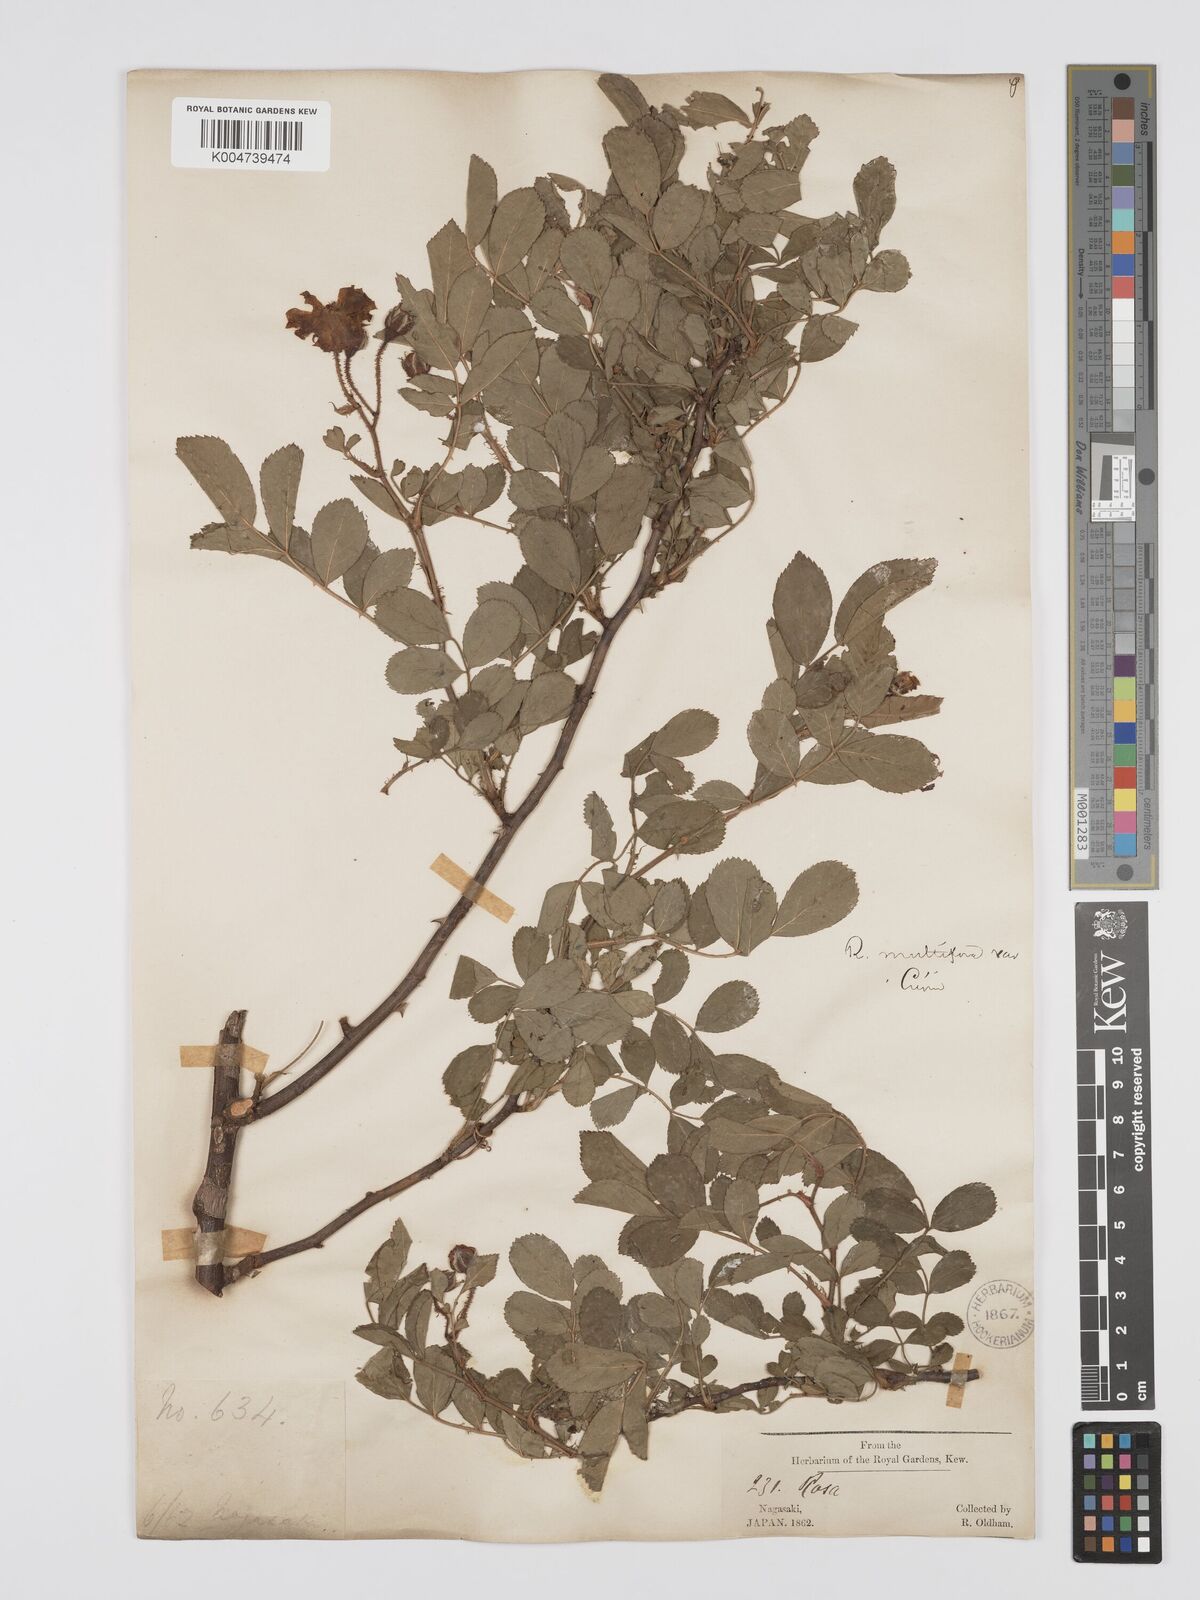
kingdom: Plantae
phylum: Tracheophyta
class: Magnoliopsida
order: Rosales
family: Rosaceae
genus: Rosa
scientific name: Rosa
